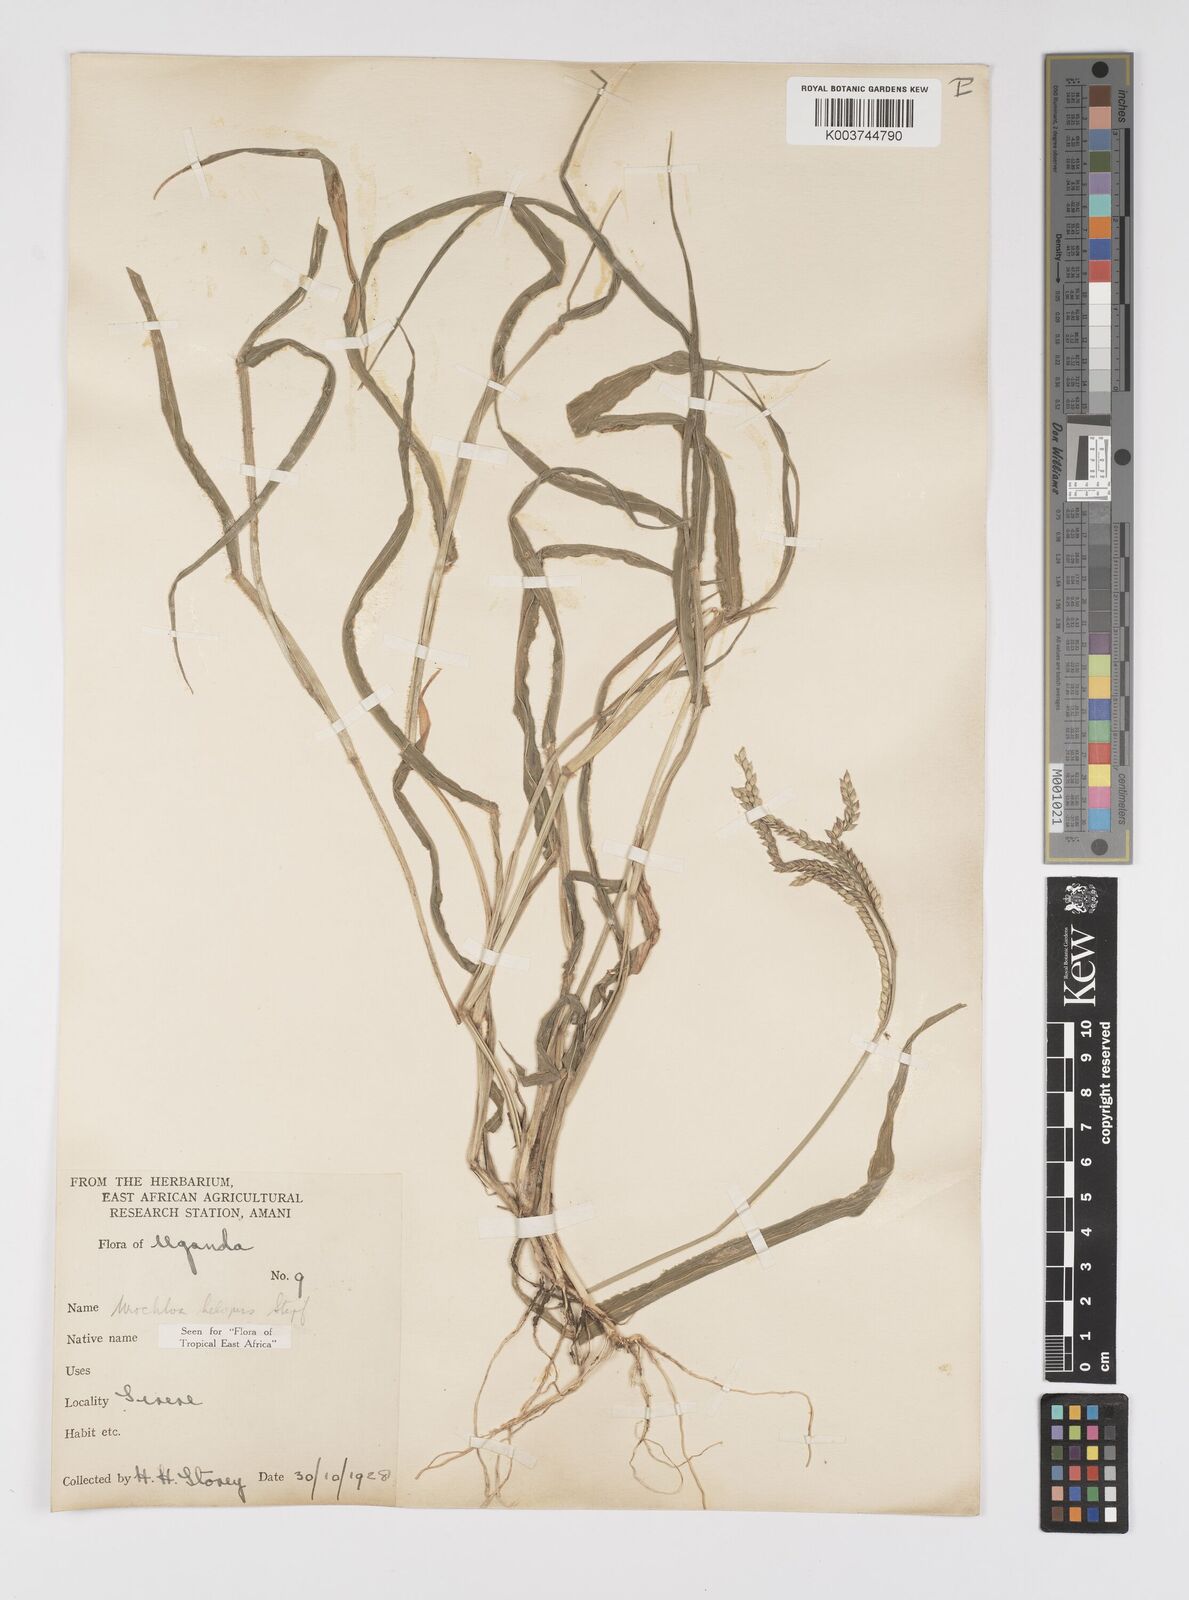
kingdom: Plantae
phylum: Tracheophyta
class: Liliopsida
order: Poales
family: Poaceae
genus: Urochloa
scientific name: Urochloa panicoides
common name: Sharp-flowered signal-grass
